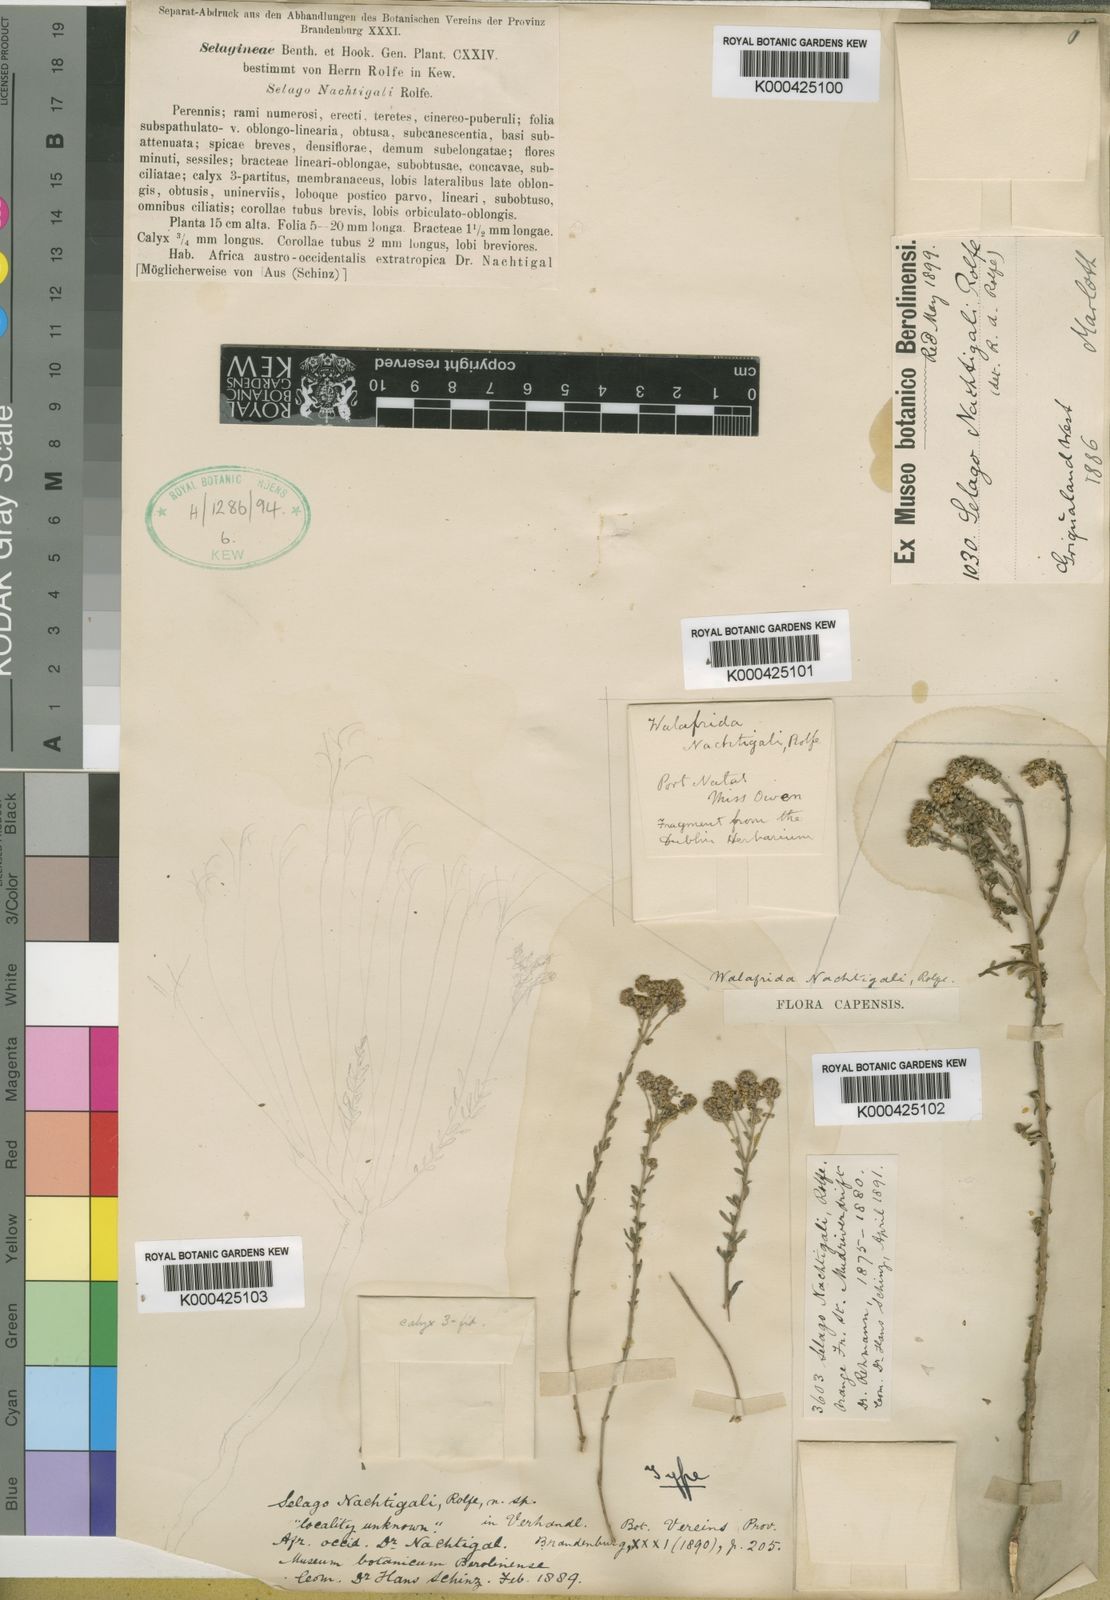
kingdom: Plantae
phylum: Tracheophyta
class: Magnoliopsida
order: Lamiales
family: Scrophulariaceae
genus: Selago
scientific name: Selago nachtigalii
